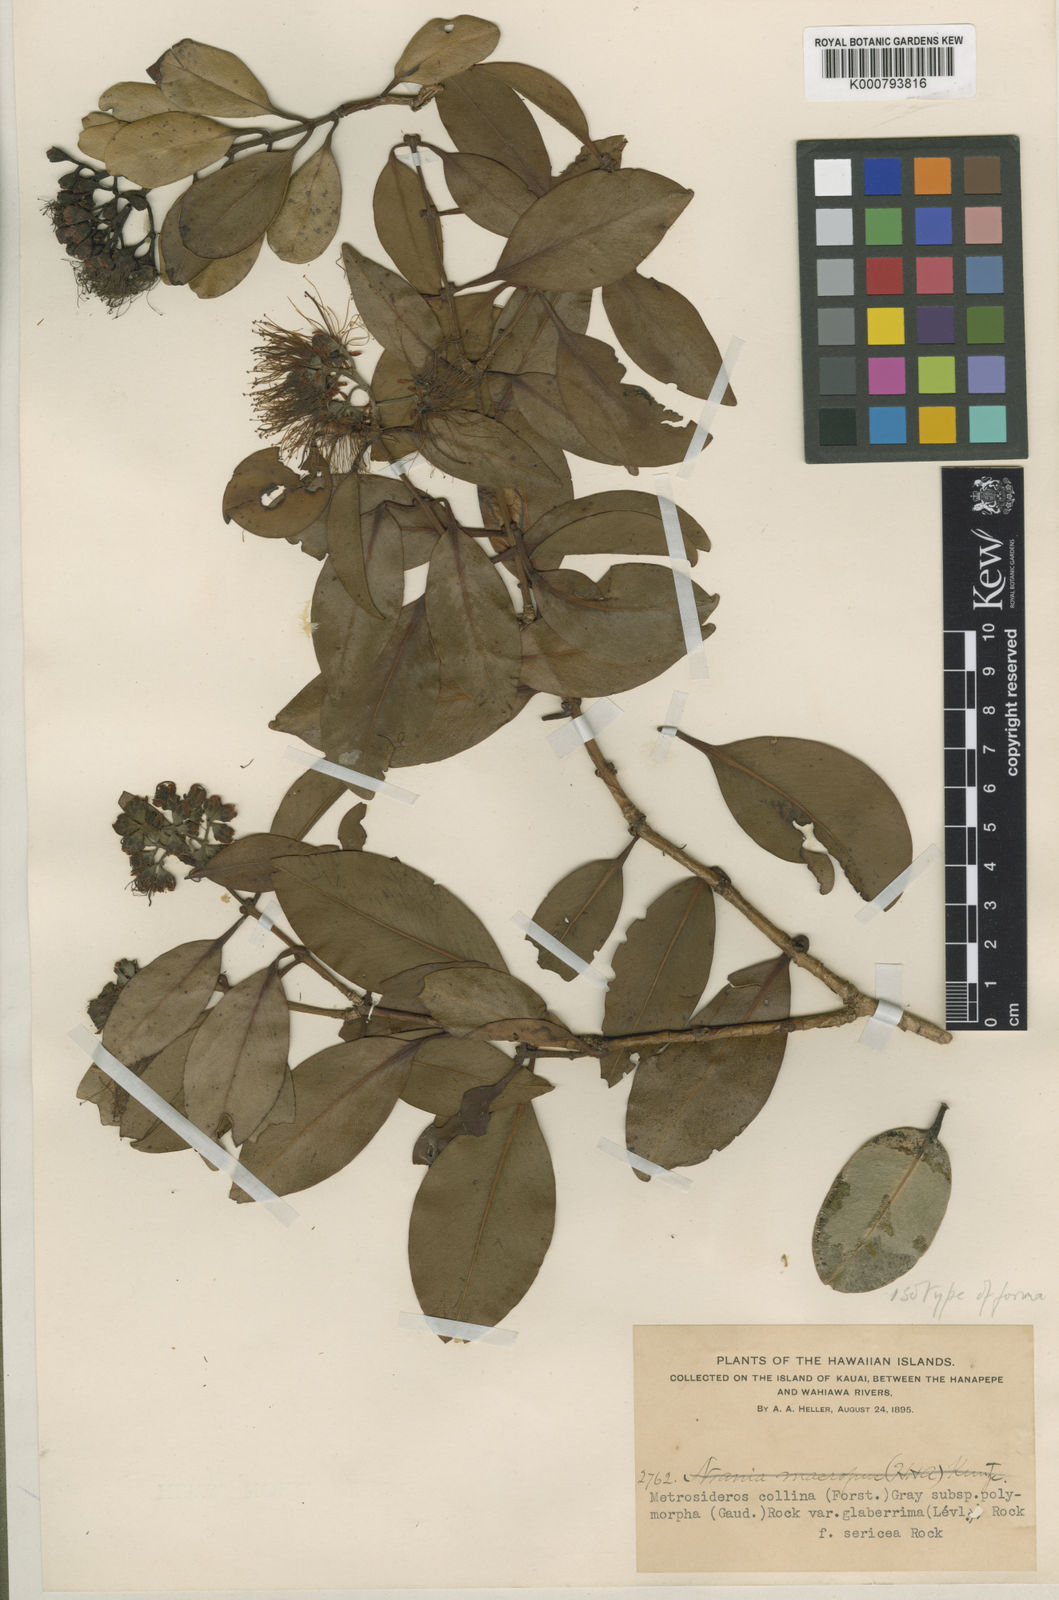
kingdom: Plantae
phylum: Tracheophyta
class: Magnoliopsida
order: Myrtales
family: Myrtaceae
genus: Metrosideros
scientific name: Metrosideros polymorpha
